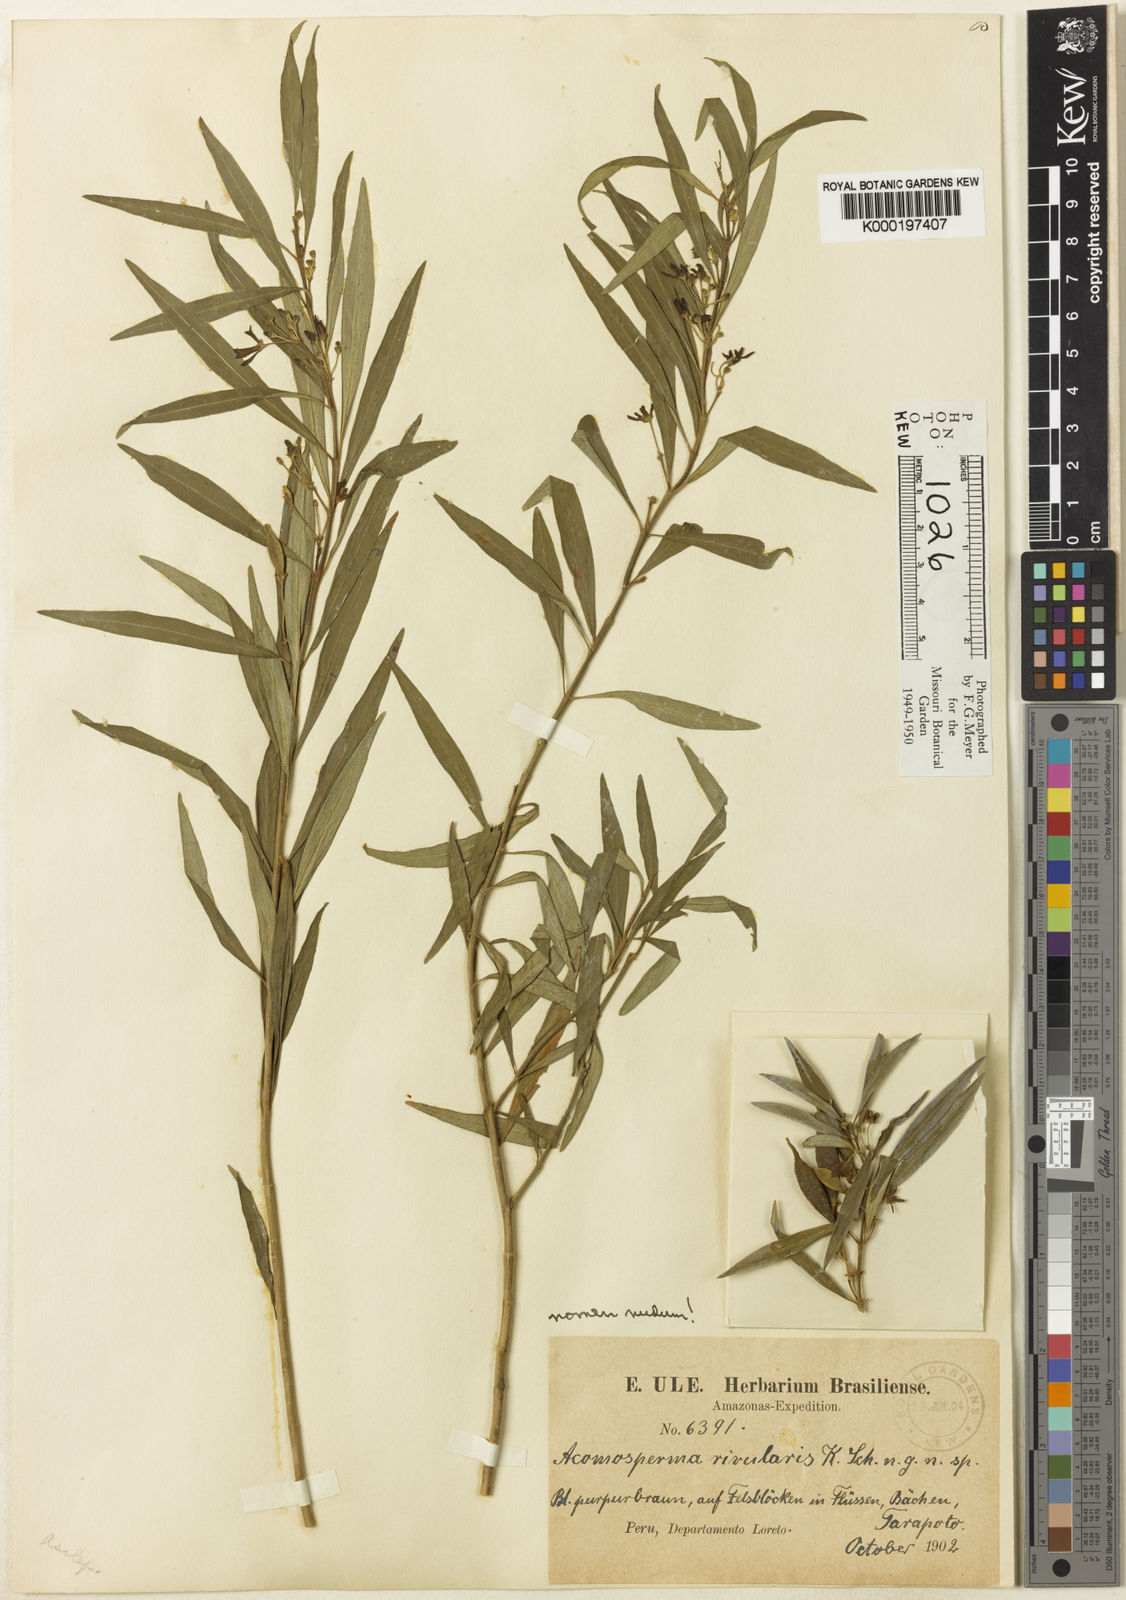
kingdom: Plantae
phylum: Tracheophyta
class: Magnoliopsida
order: Gentianales
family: Apocynaceae
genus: Matelea
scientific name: Matelea rivularis
